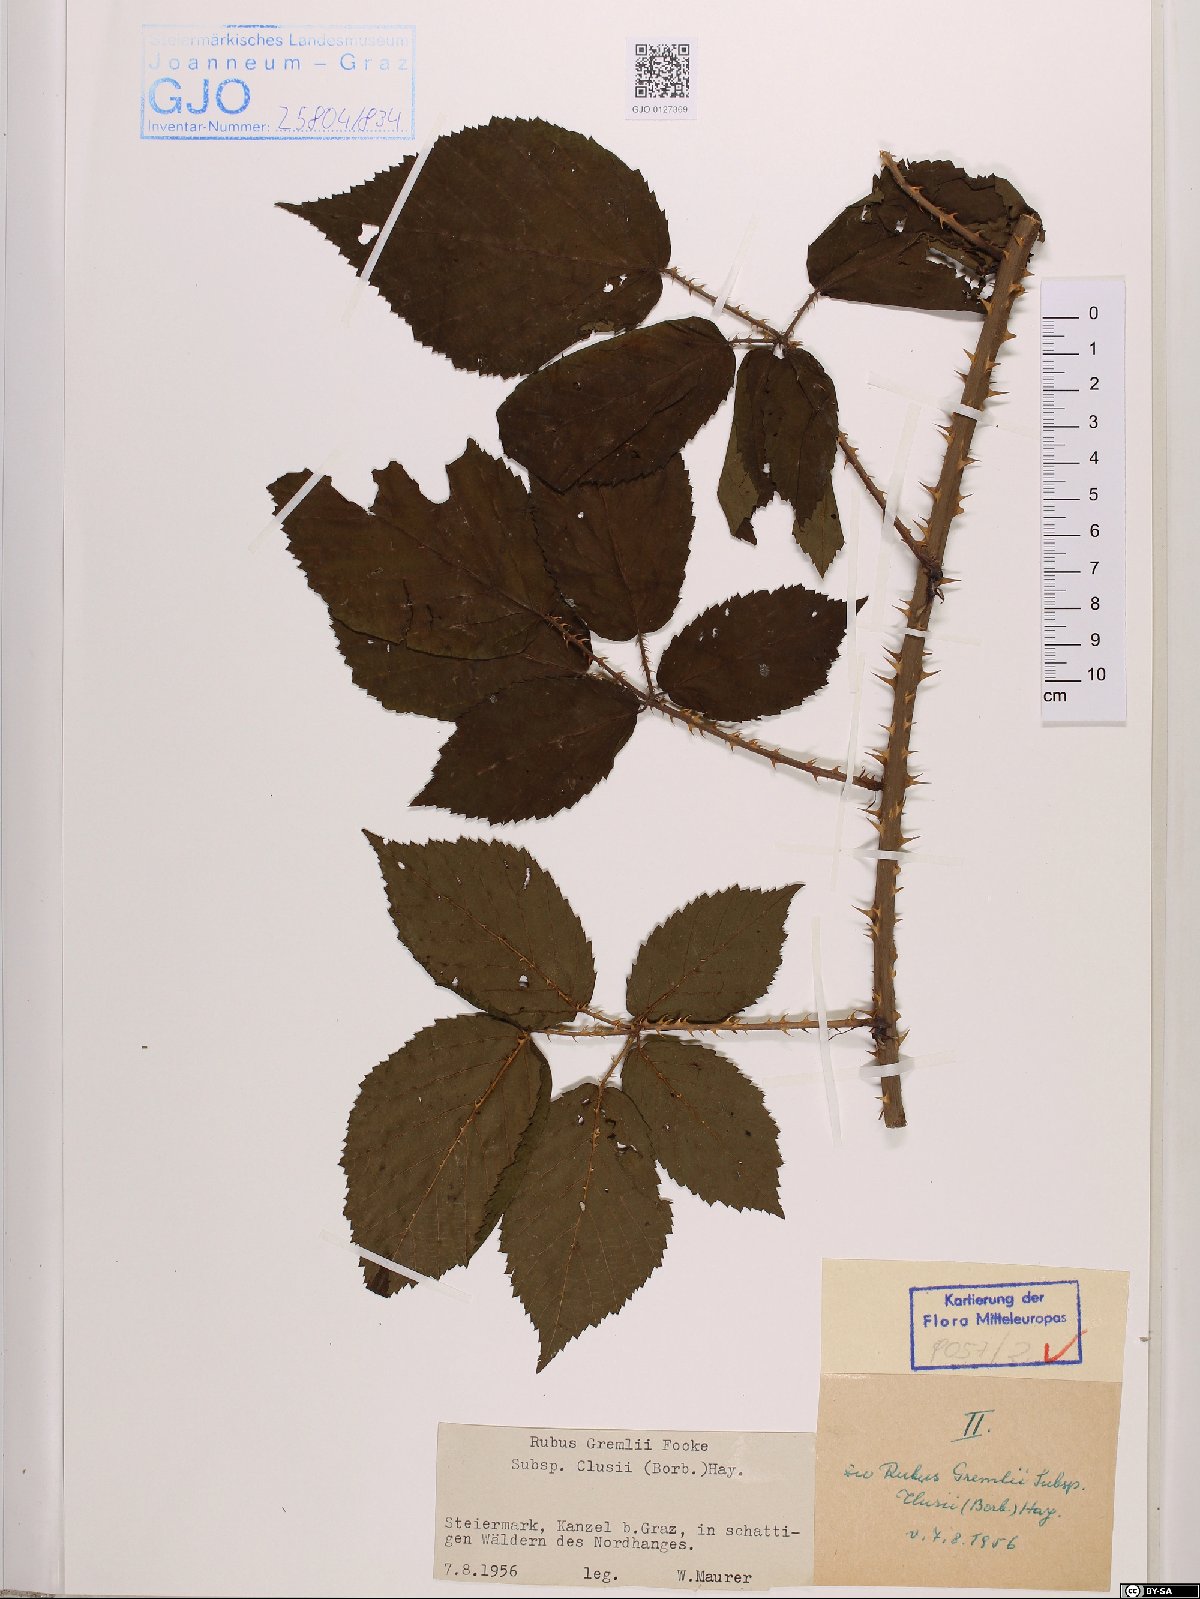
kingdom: Plantae
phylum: Tracheophyta
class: Magnoliopsida
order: Rosales
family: Rosaceae
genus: Rubus
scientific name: Rubus clusii
